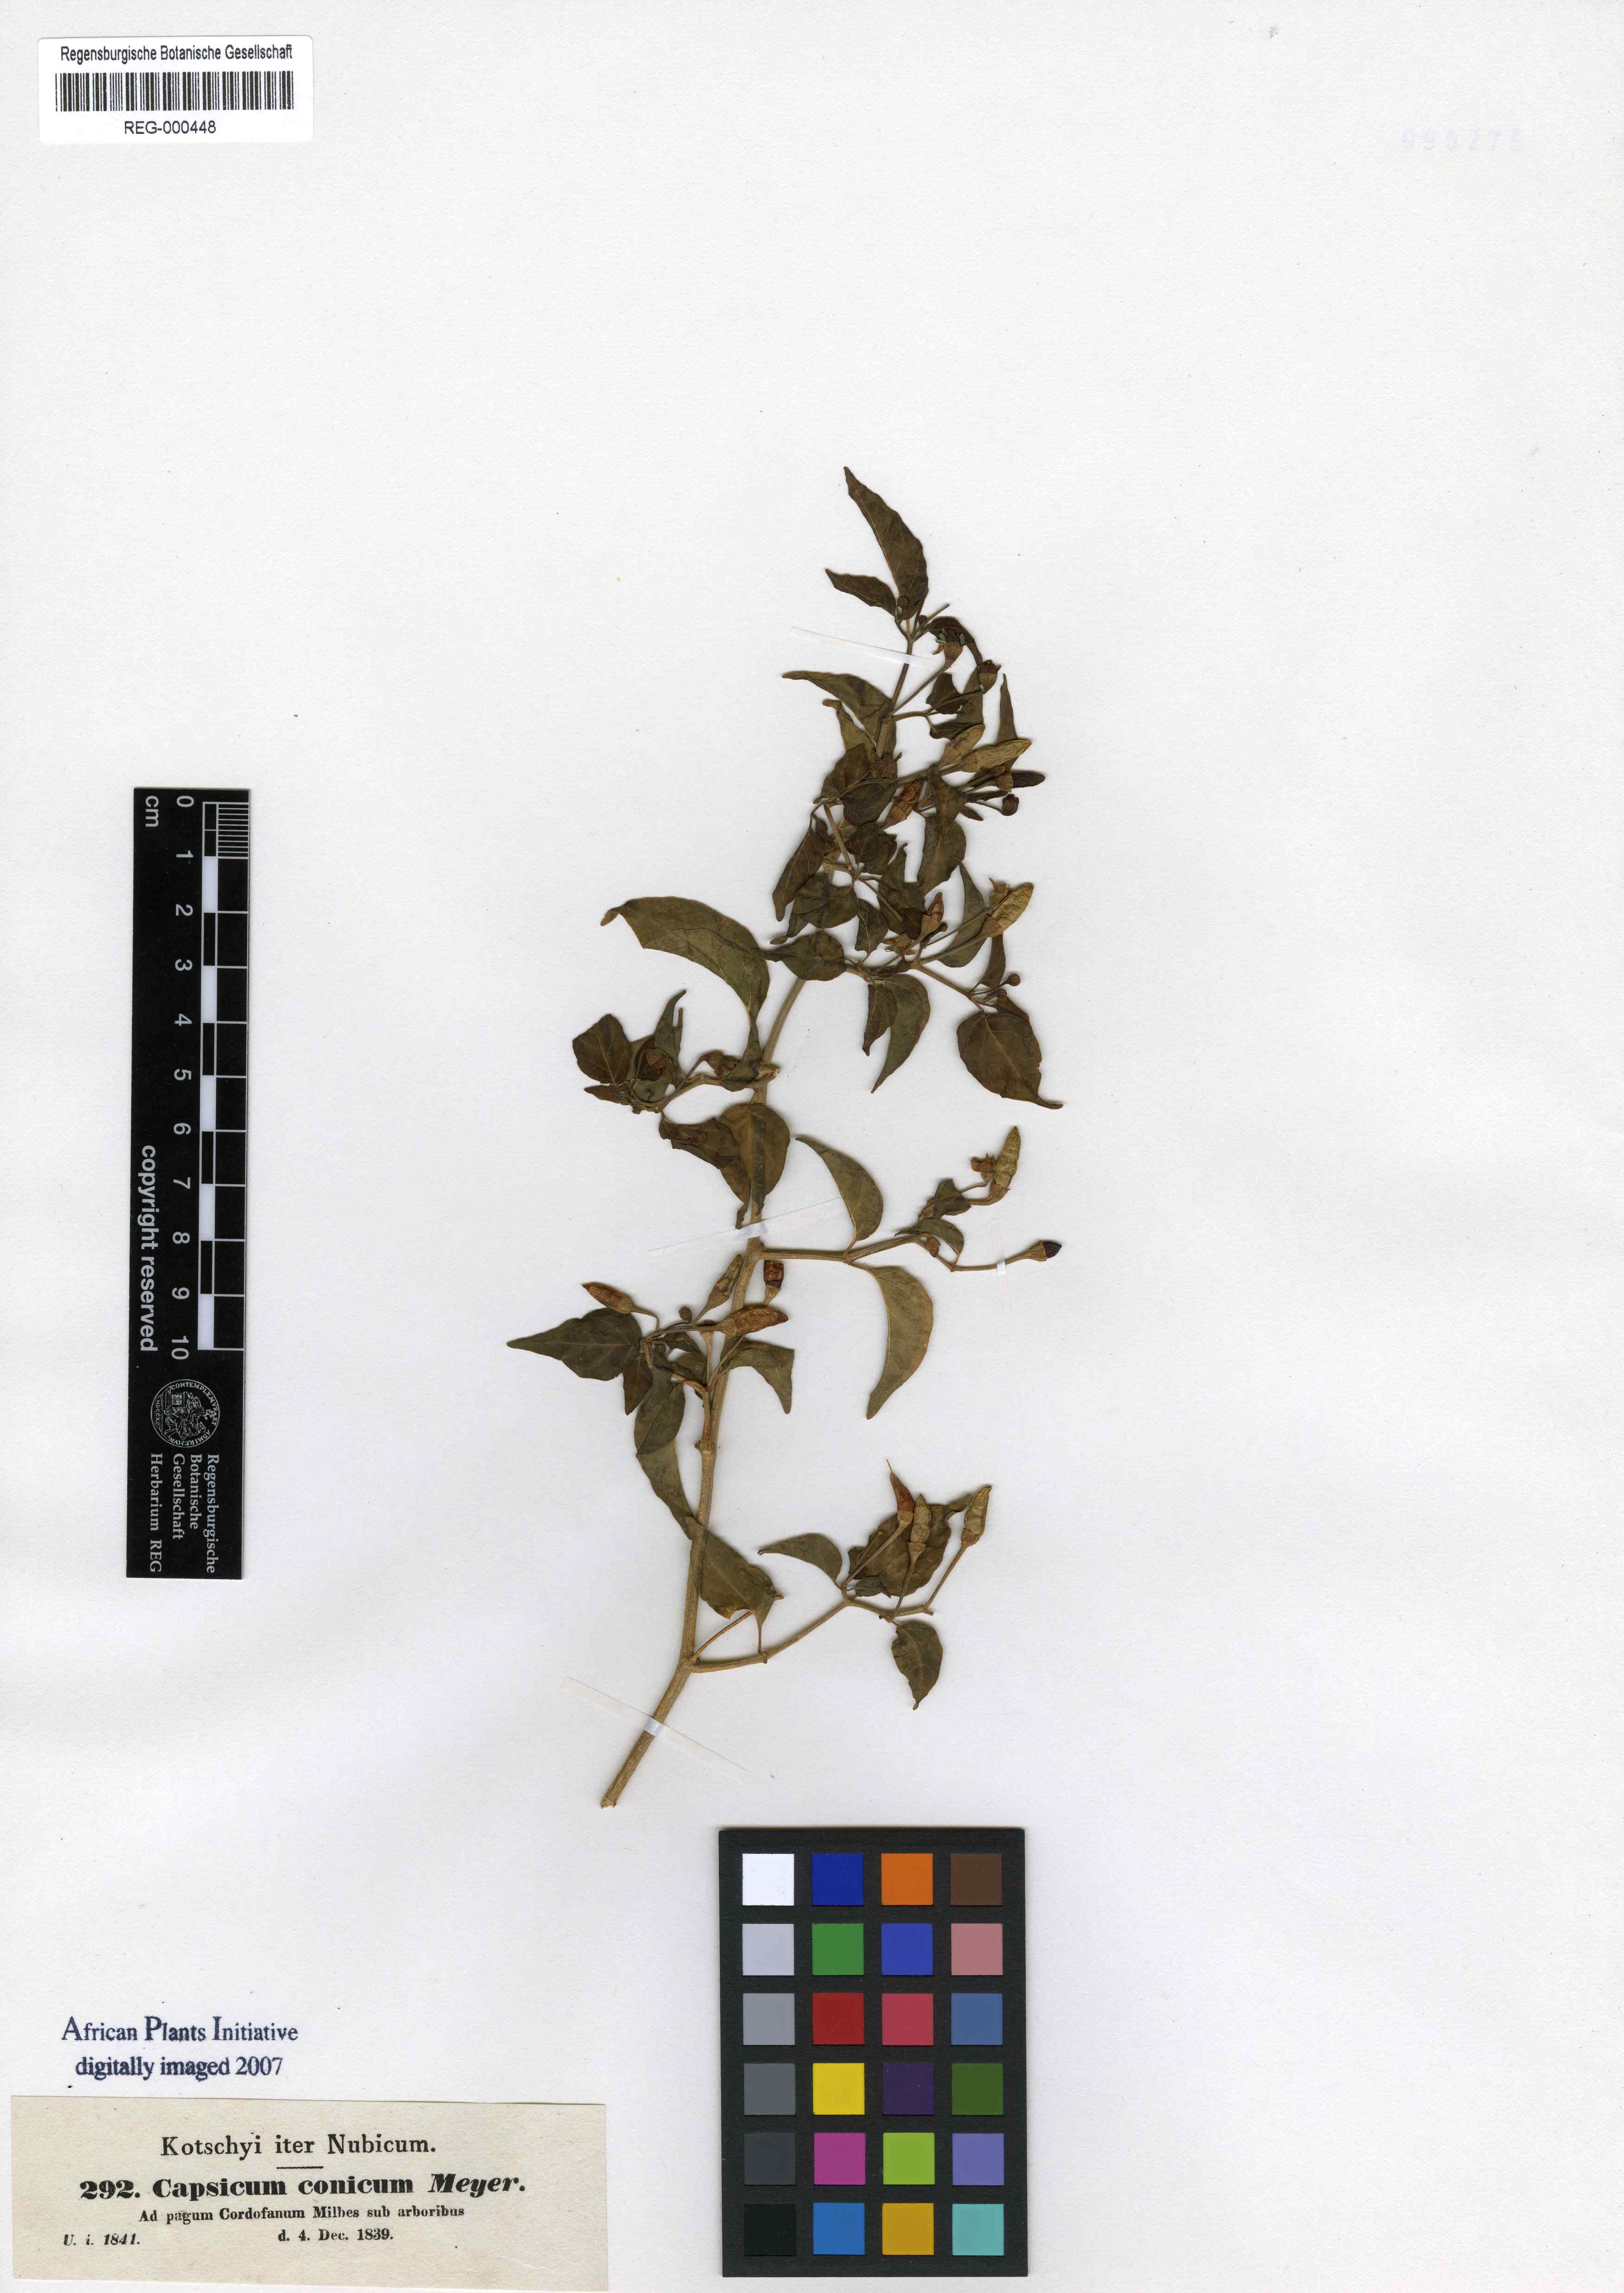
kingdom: Plantae
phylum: Tracheophyta
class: Magnoliopsida
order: Solanales
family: Solanaceae
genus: Capsicum
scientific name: Capsicum frutescens
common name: Bird pepper
